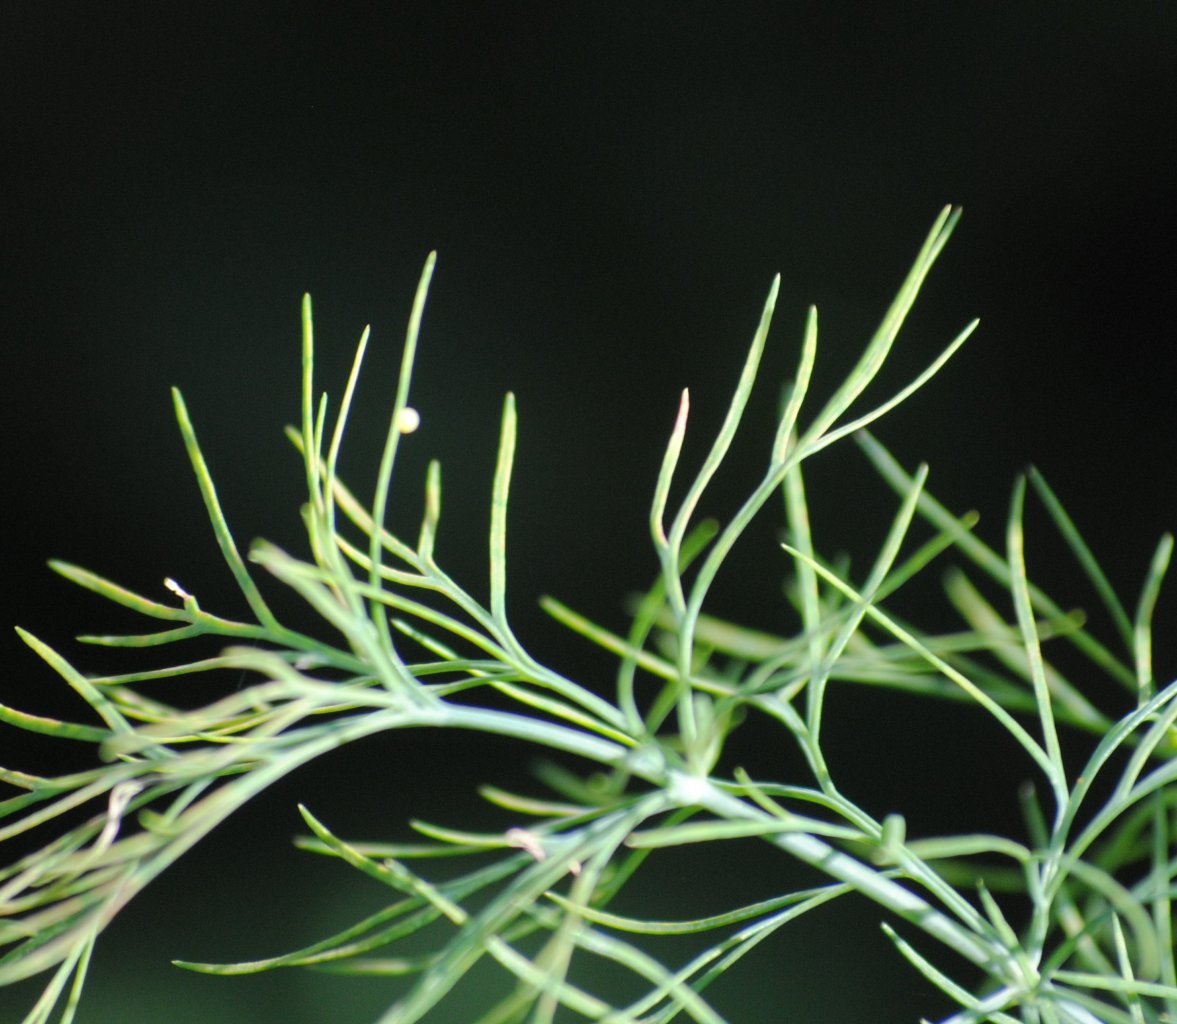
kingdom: Animalia
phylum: Arthropoda
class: Insecta
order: Lepidoptera
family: Papilionidae
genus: Papilio
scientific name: Papilio polyxenes
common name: Black Swallowtail
